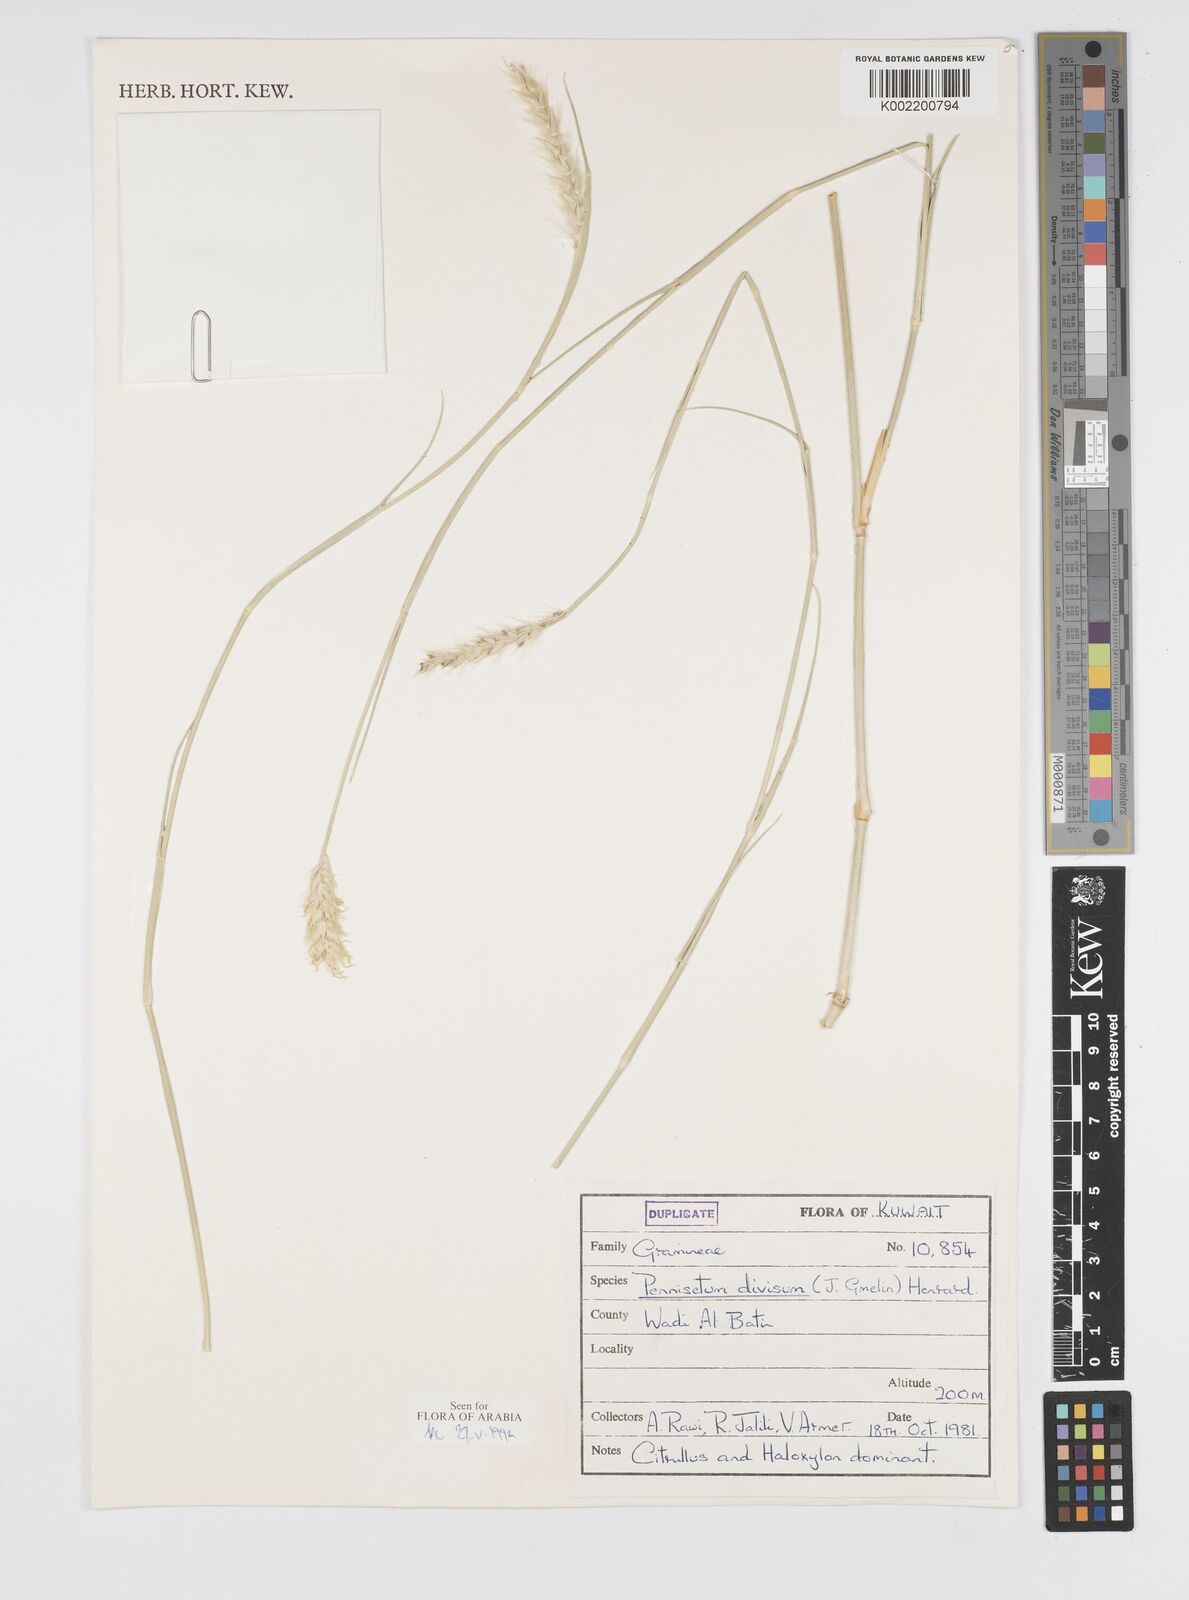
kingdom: Plantae
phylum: Tracheophyta
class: Liliopsida
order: Poales
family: Poaceae
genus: Cenchrus
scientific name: Cenchrus divisus
